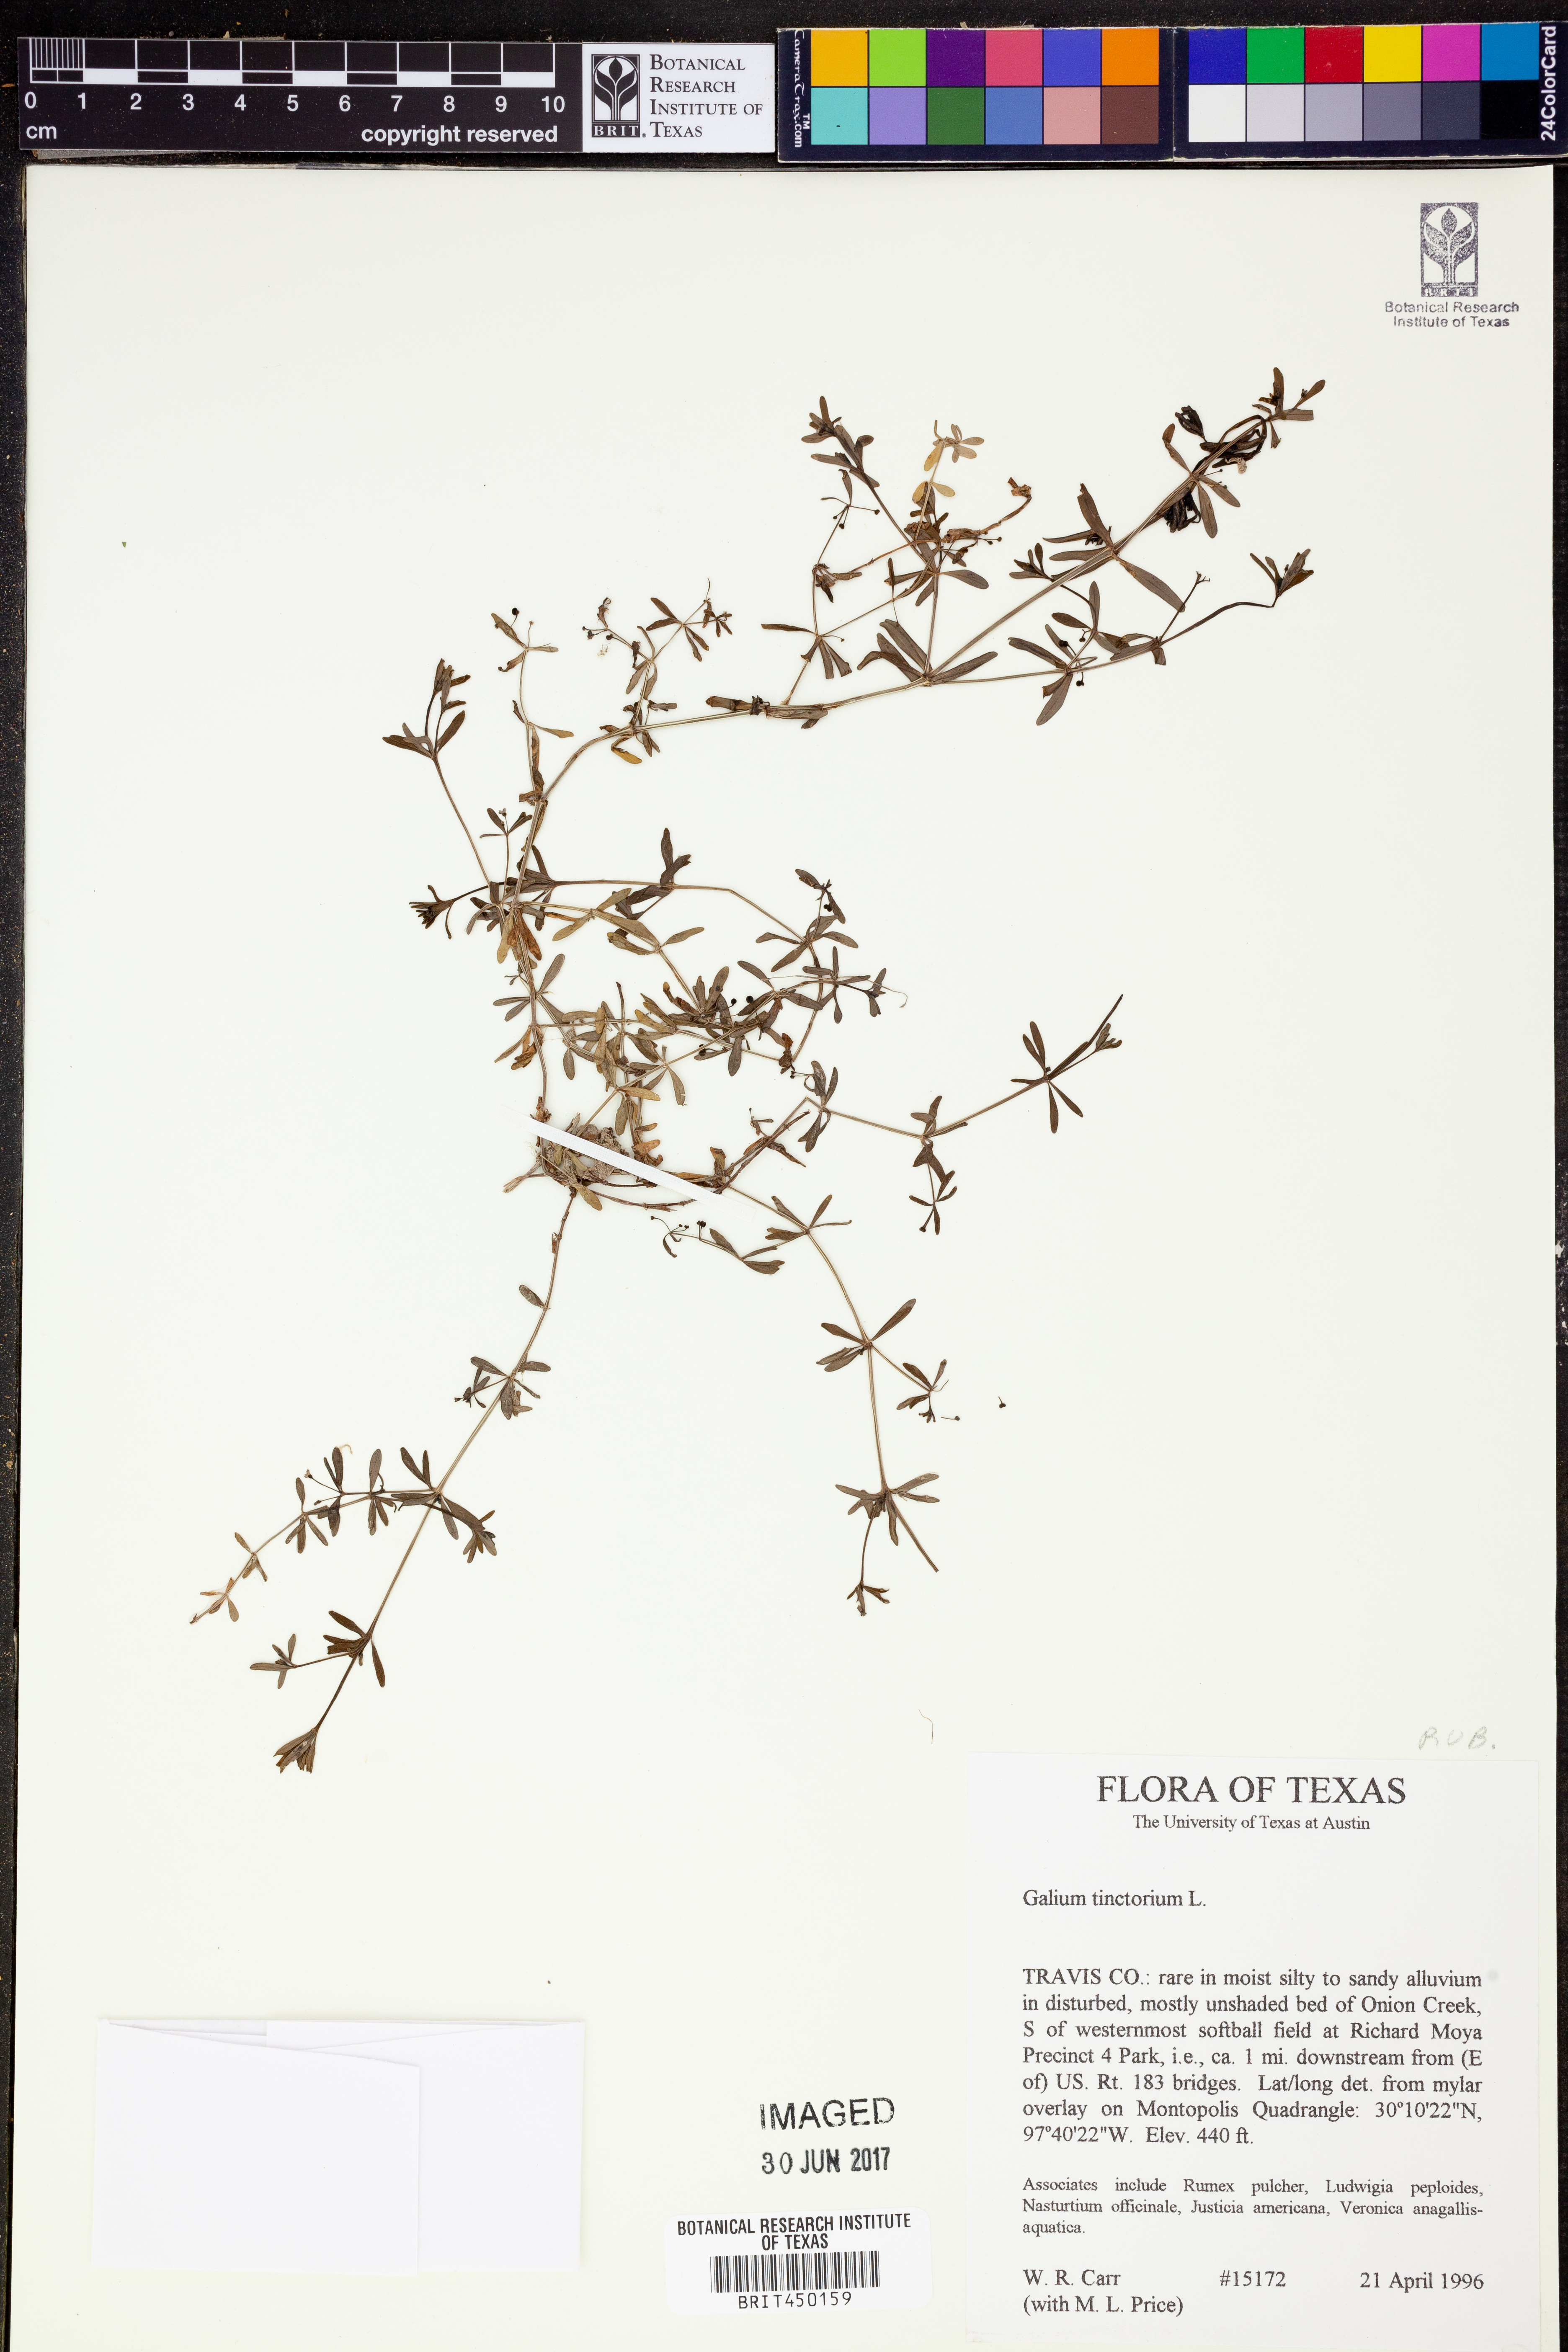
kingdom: Plantae
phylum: Tracheophyta
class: Magnoliopsida
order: Gentianales
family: Rubiaceae
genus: Asperula
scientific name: Asperula tinctoria
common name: Dyer's woodruff
